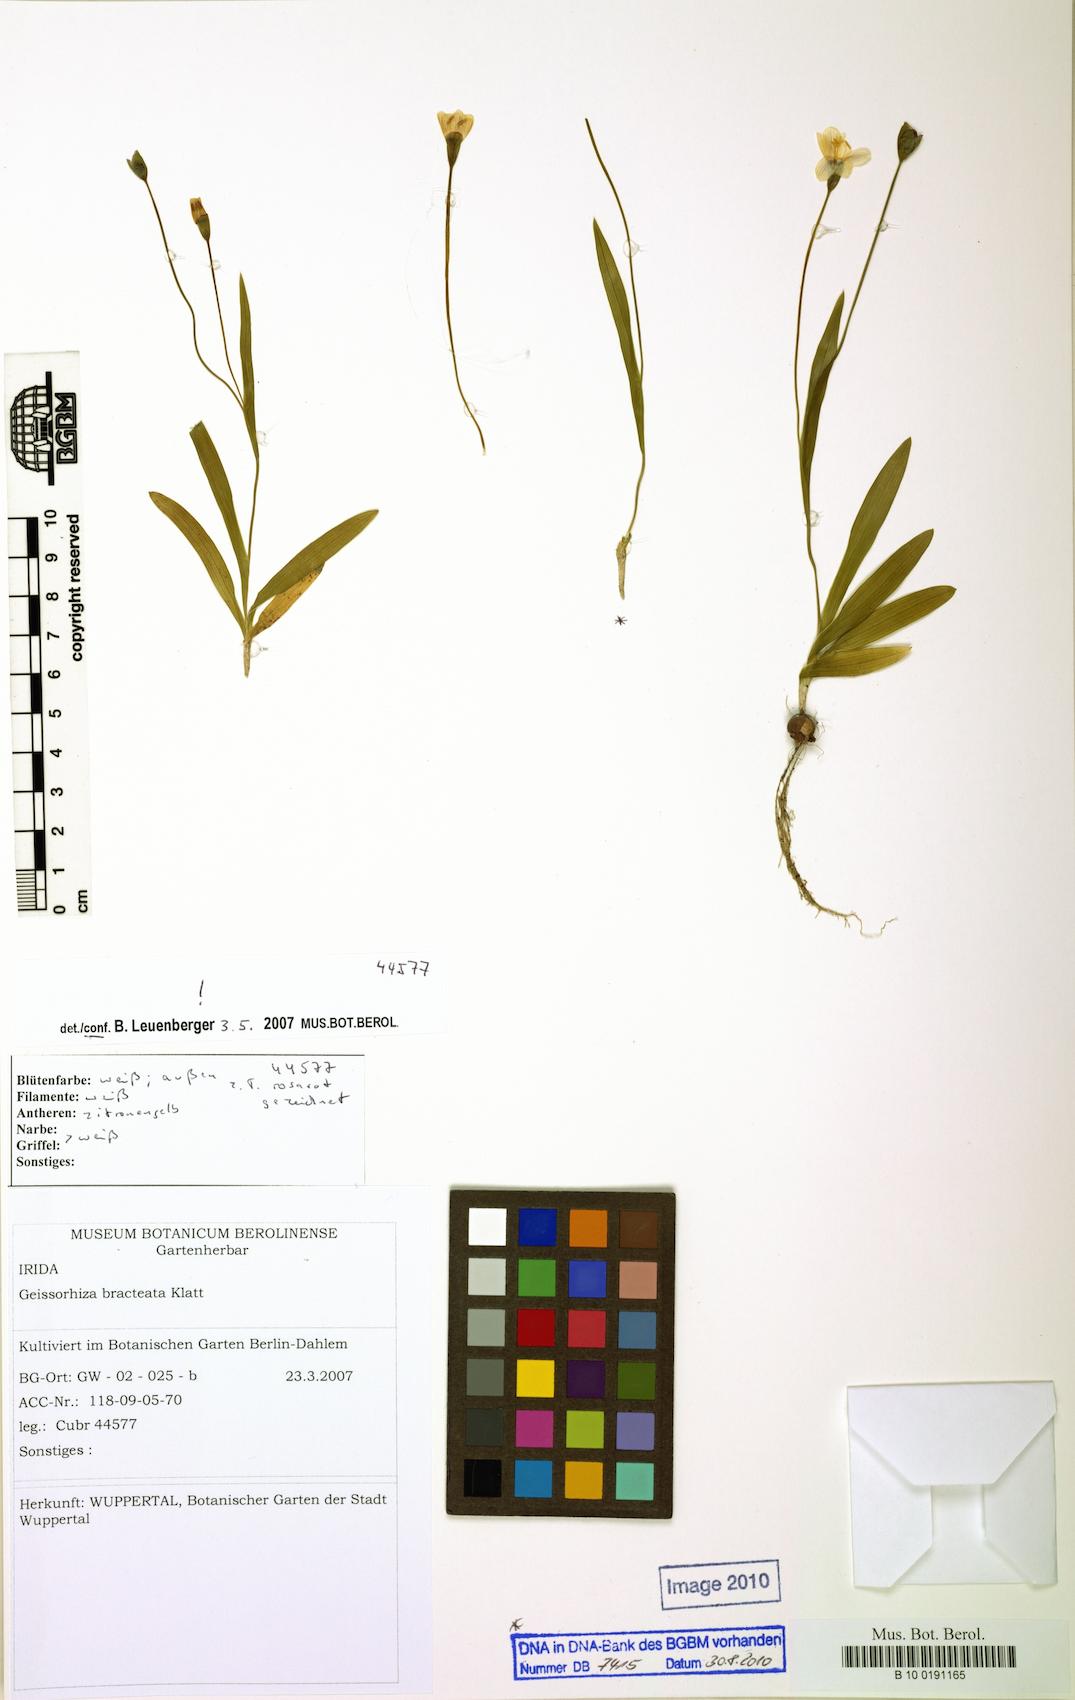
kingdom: Plantae
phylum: Tracheophyta
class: Liliopsida
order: Asparagales
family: Iridaceae
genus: Geissorhiza
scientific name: Geissorhiza bracteata
